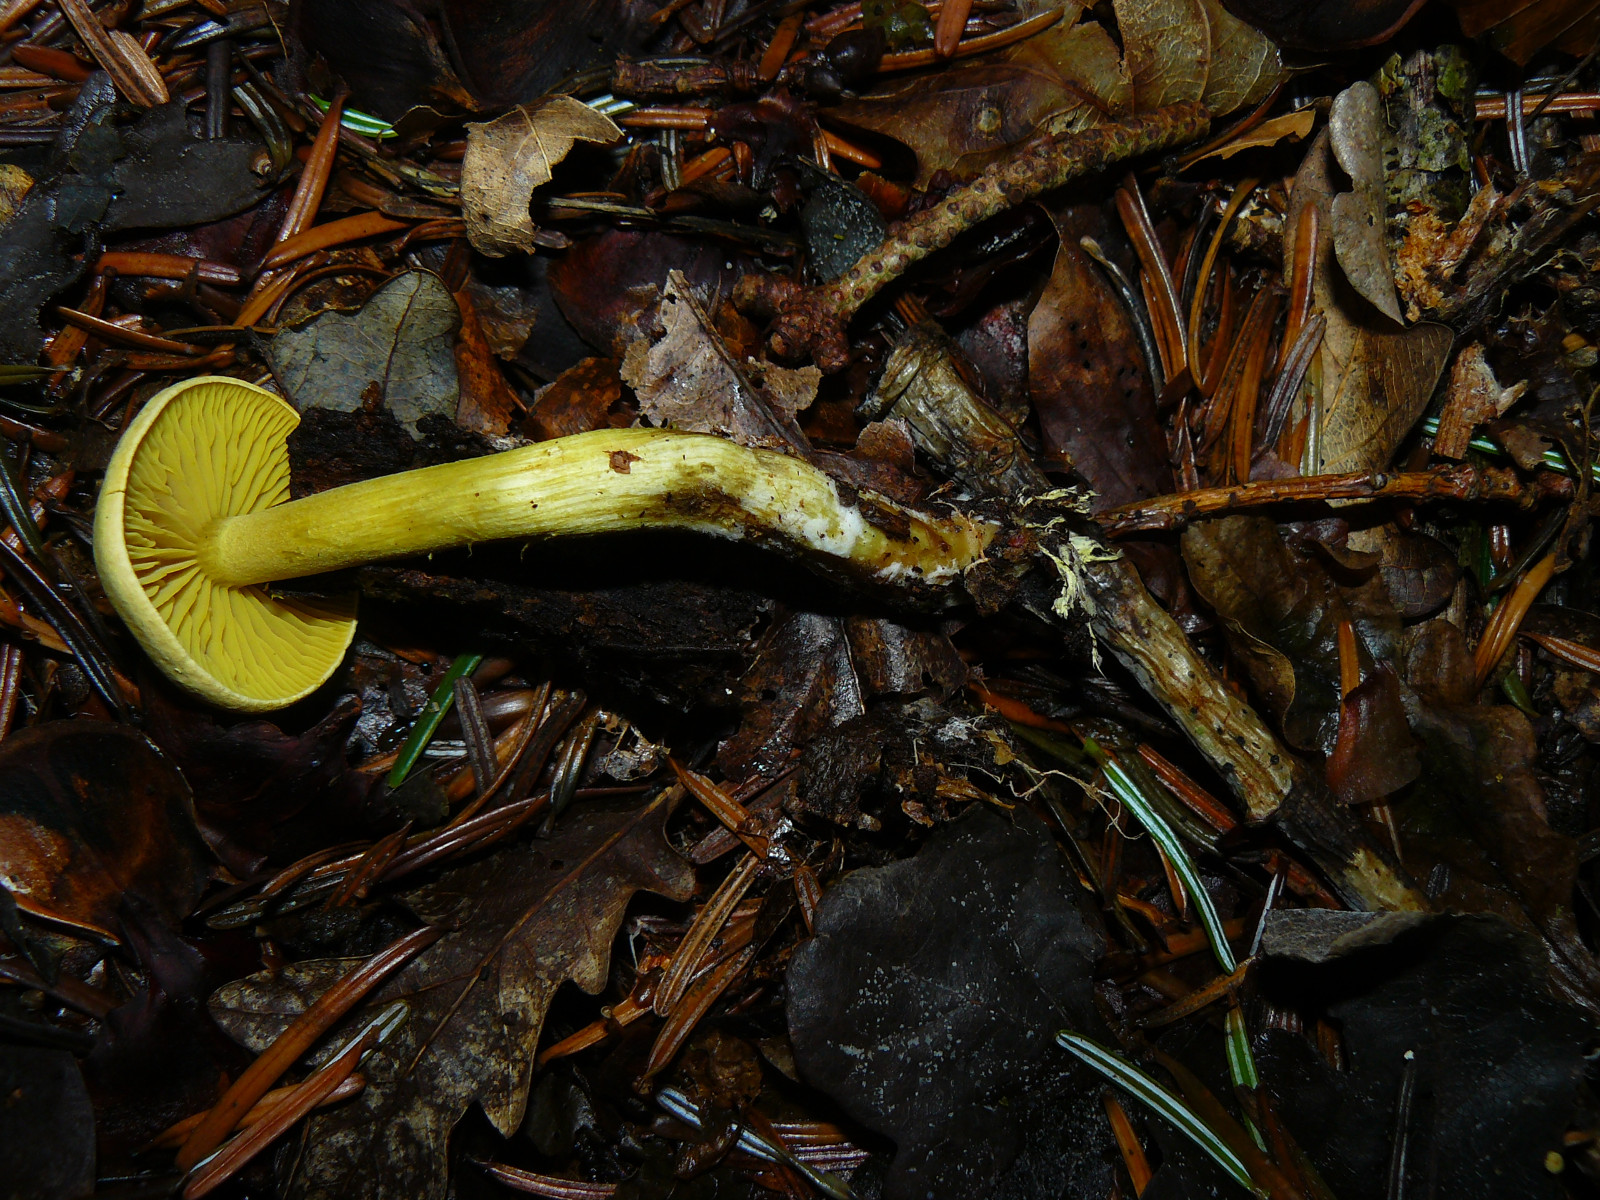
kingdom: Fungi
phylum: Basidiomycota
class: Agaricomycetes
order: Agaricales
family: Tricholomataceae
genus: Tricholoma
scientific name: Tricholoma sulphureum
